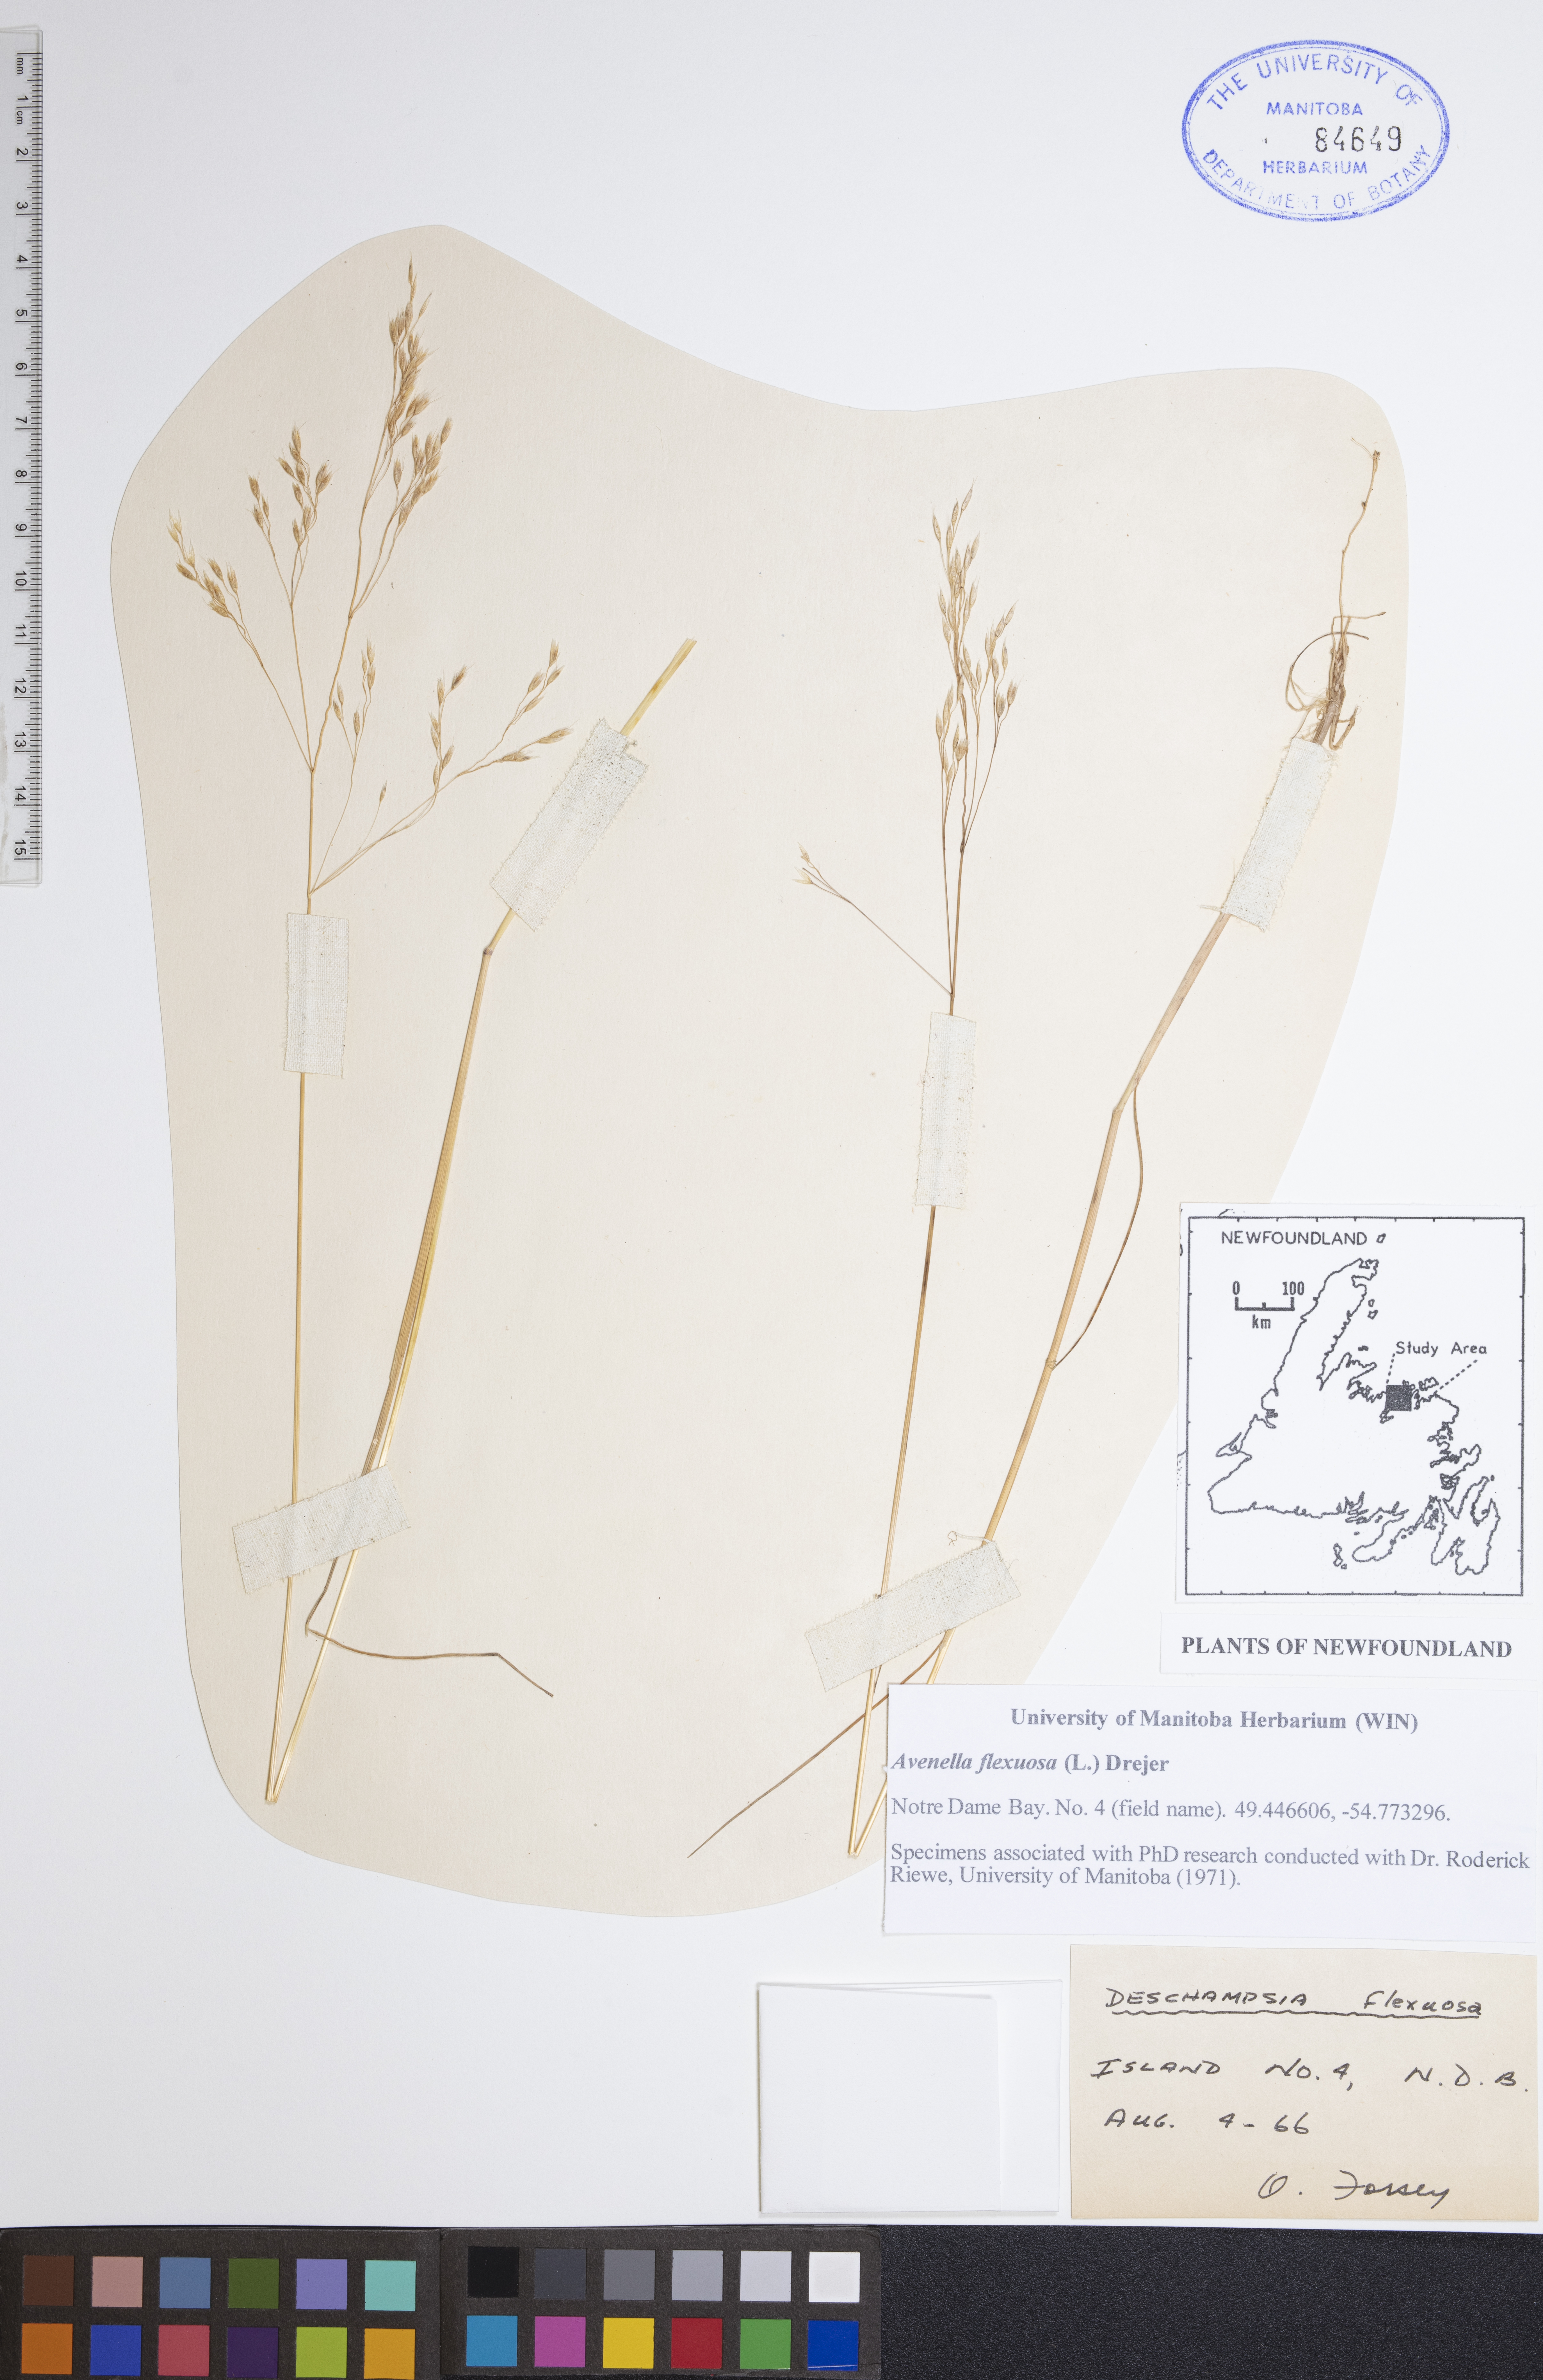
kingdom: Plantae
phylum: Tracheophyta
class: Liliopsida
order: Poales
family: Poaceae
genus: Avenella
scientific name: Avenella flexuosa
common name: Wavy hairgrass
